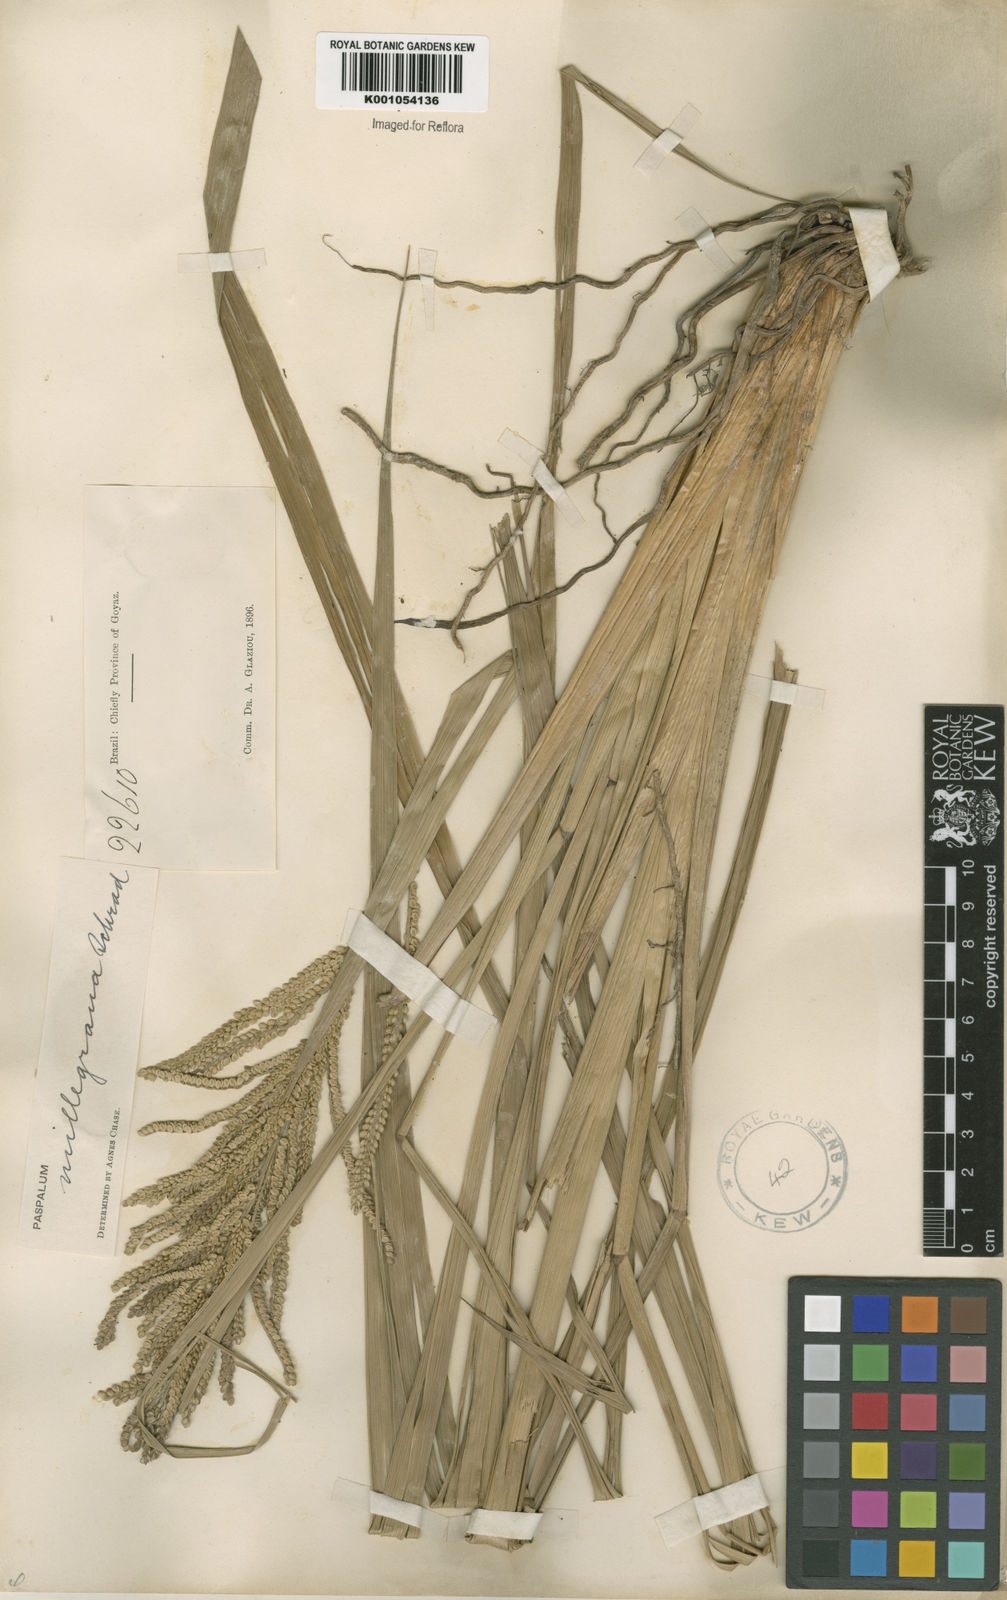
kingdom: Plantae
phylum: Tracheophyta
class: Liliopsida
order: Poales
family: Poaceae
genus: Paspalum
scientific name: Paspalum
